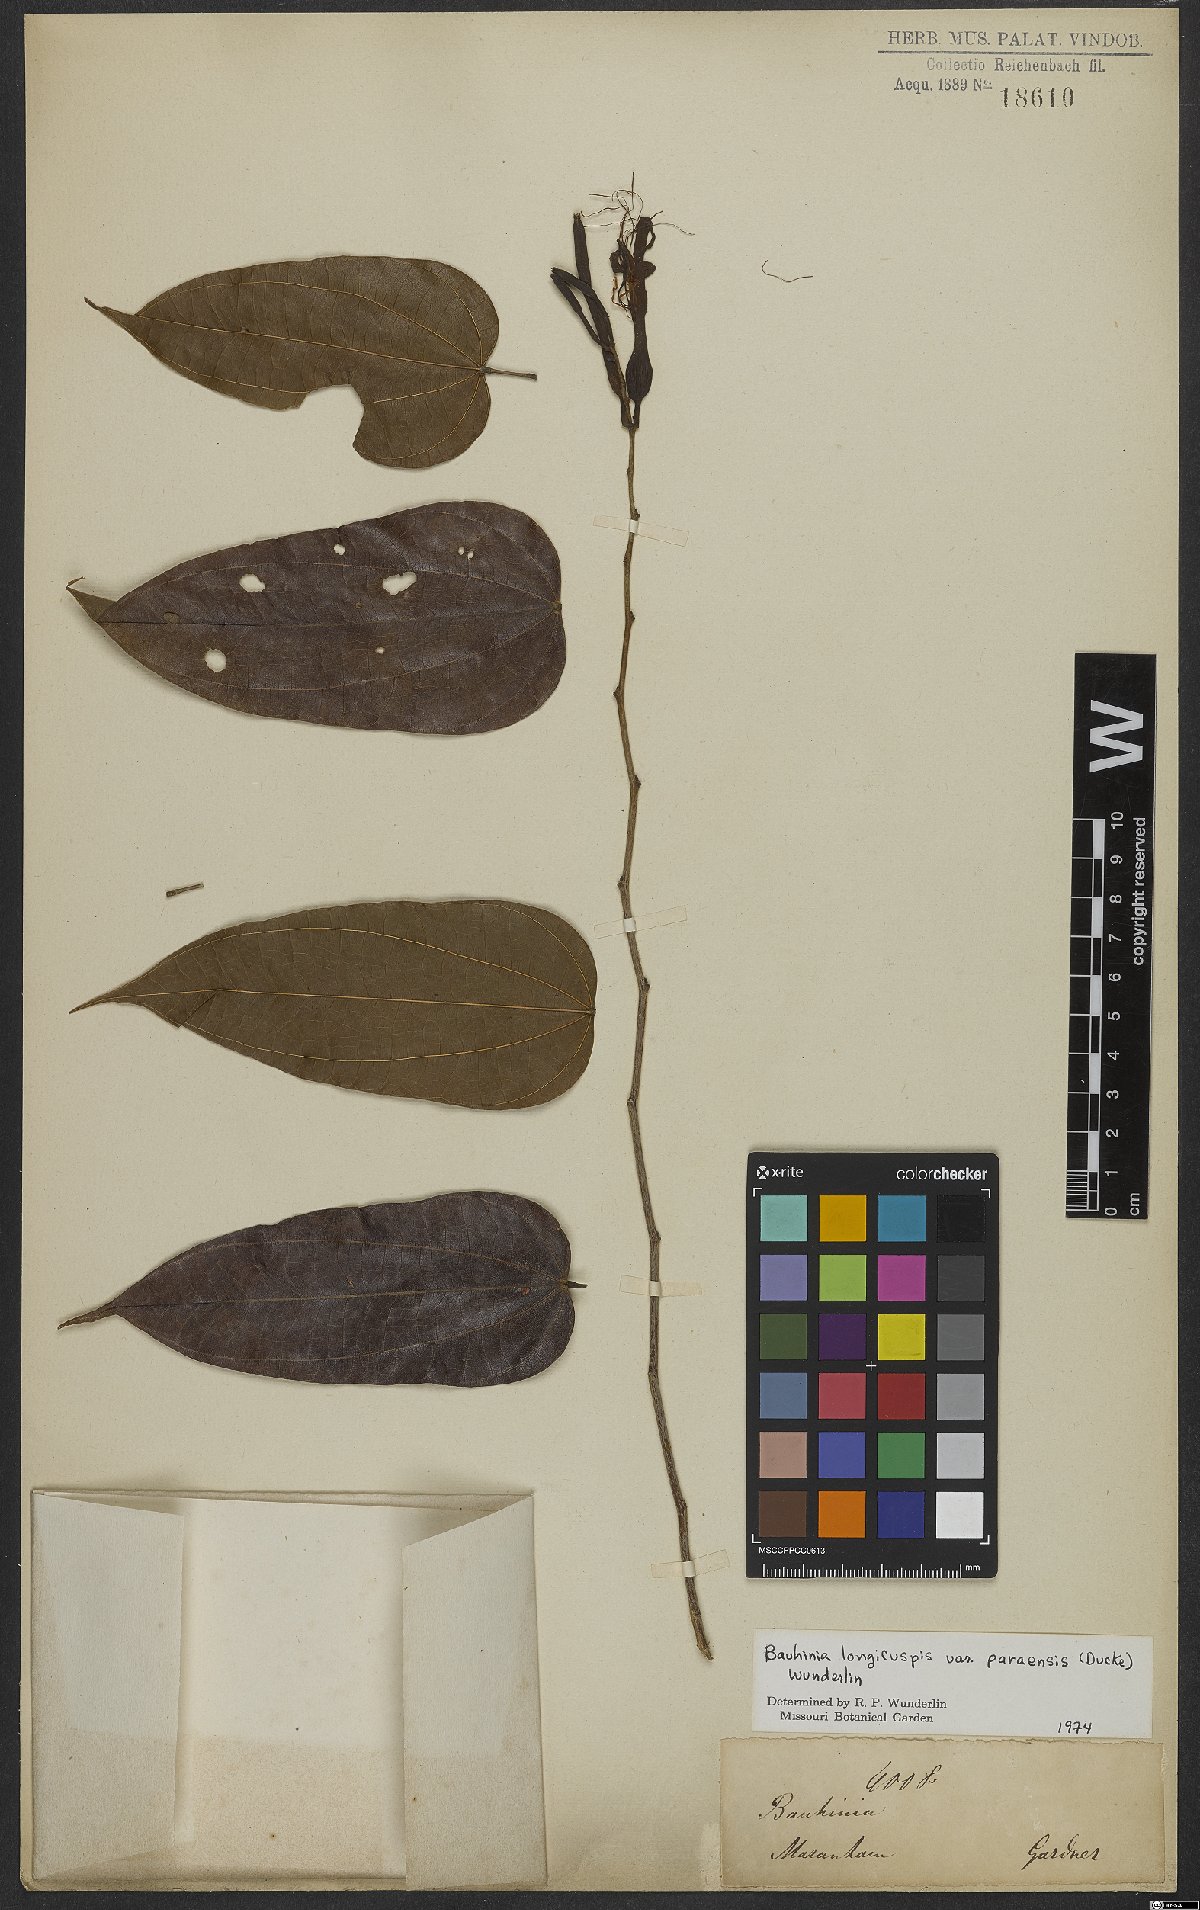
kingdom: Plantae
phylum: Tracheophyta
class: Magnoliopsida
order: Fabales
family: Fabaceae
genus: Bauhinia
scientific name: Bauhinia longicuspis
